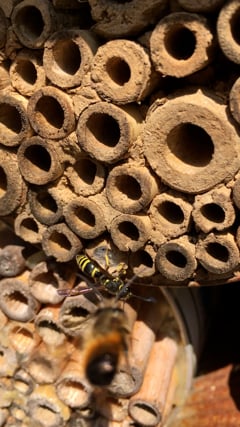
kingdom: Animalia
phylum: Arthropoda
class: Insecta
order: Hymenoptera
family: Vespidae
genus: Ancistrocerus
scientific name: Ancistrocerus nigricornis
